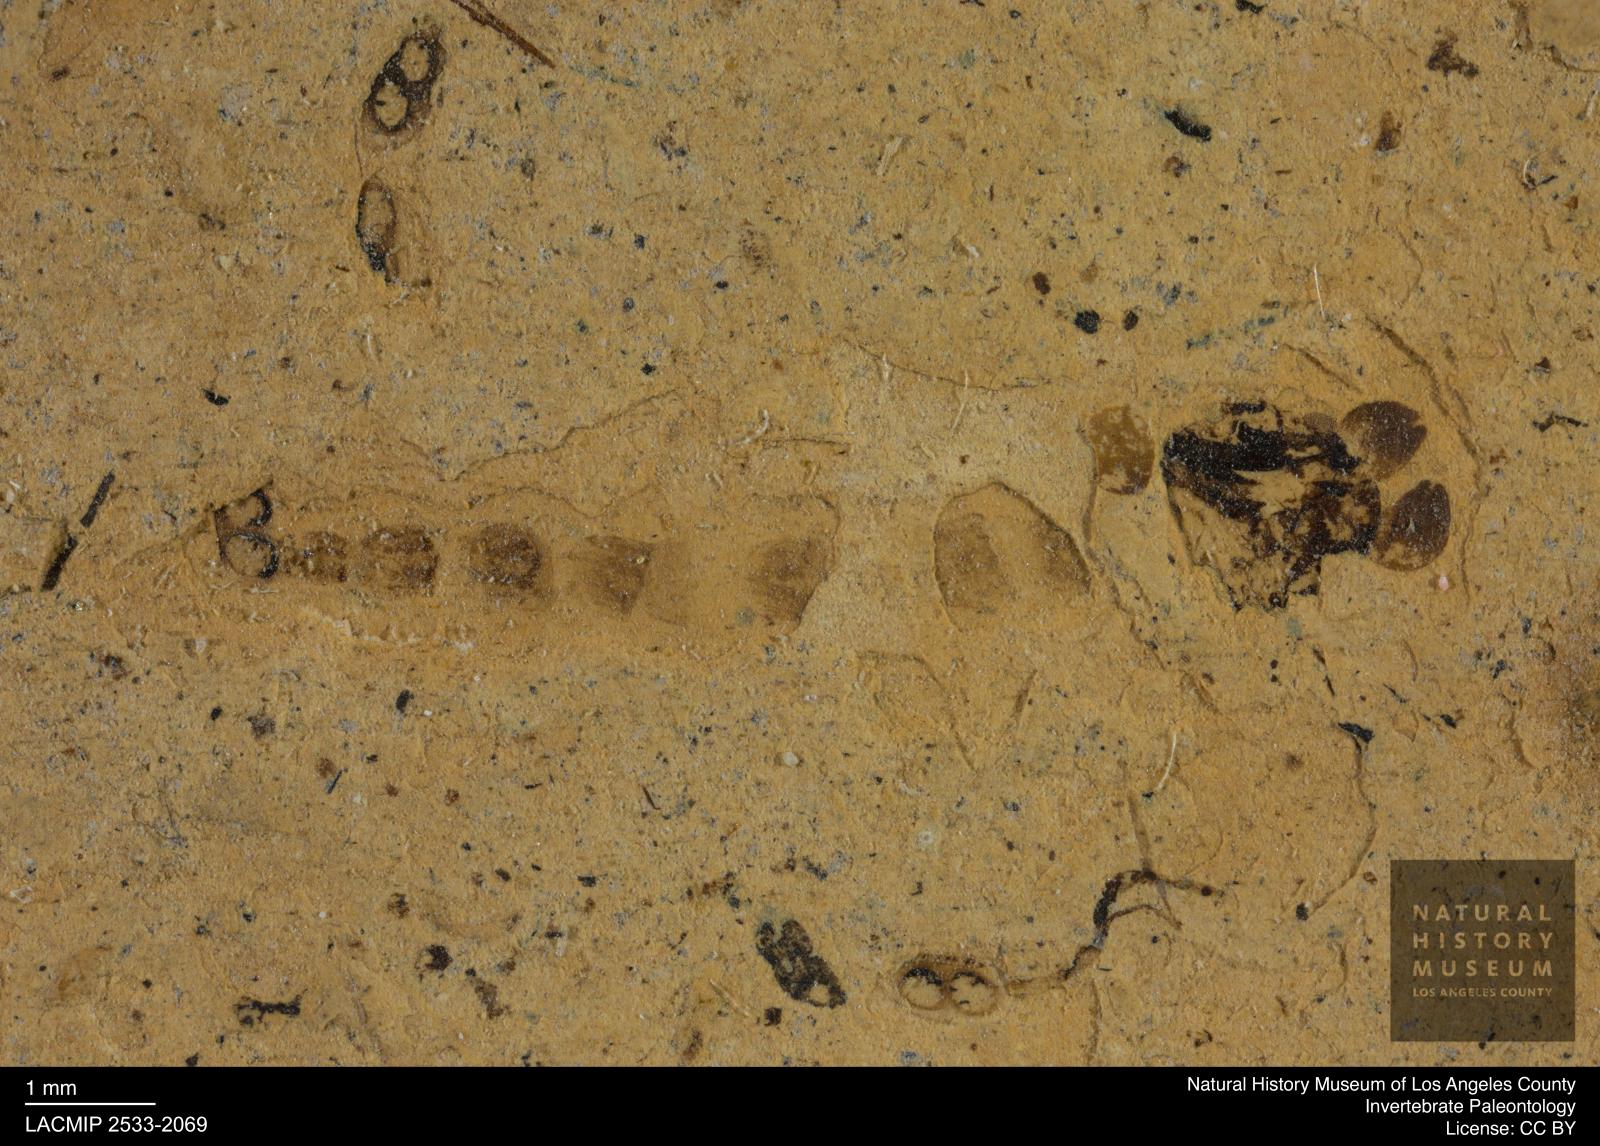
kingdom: Animalia
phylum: Arthropoda
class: Insecta
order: Diptera
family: Chironomidae
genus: Pelopiina
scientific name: Pelopiina
